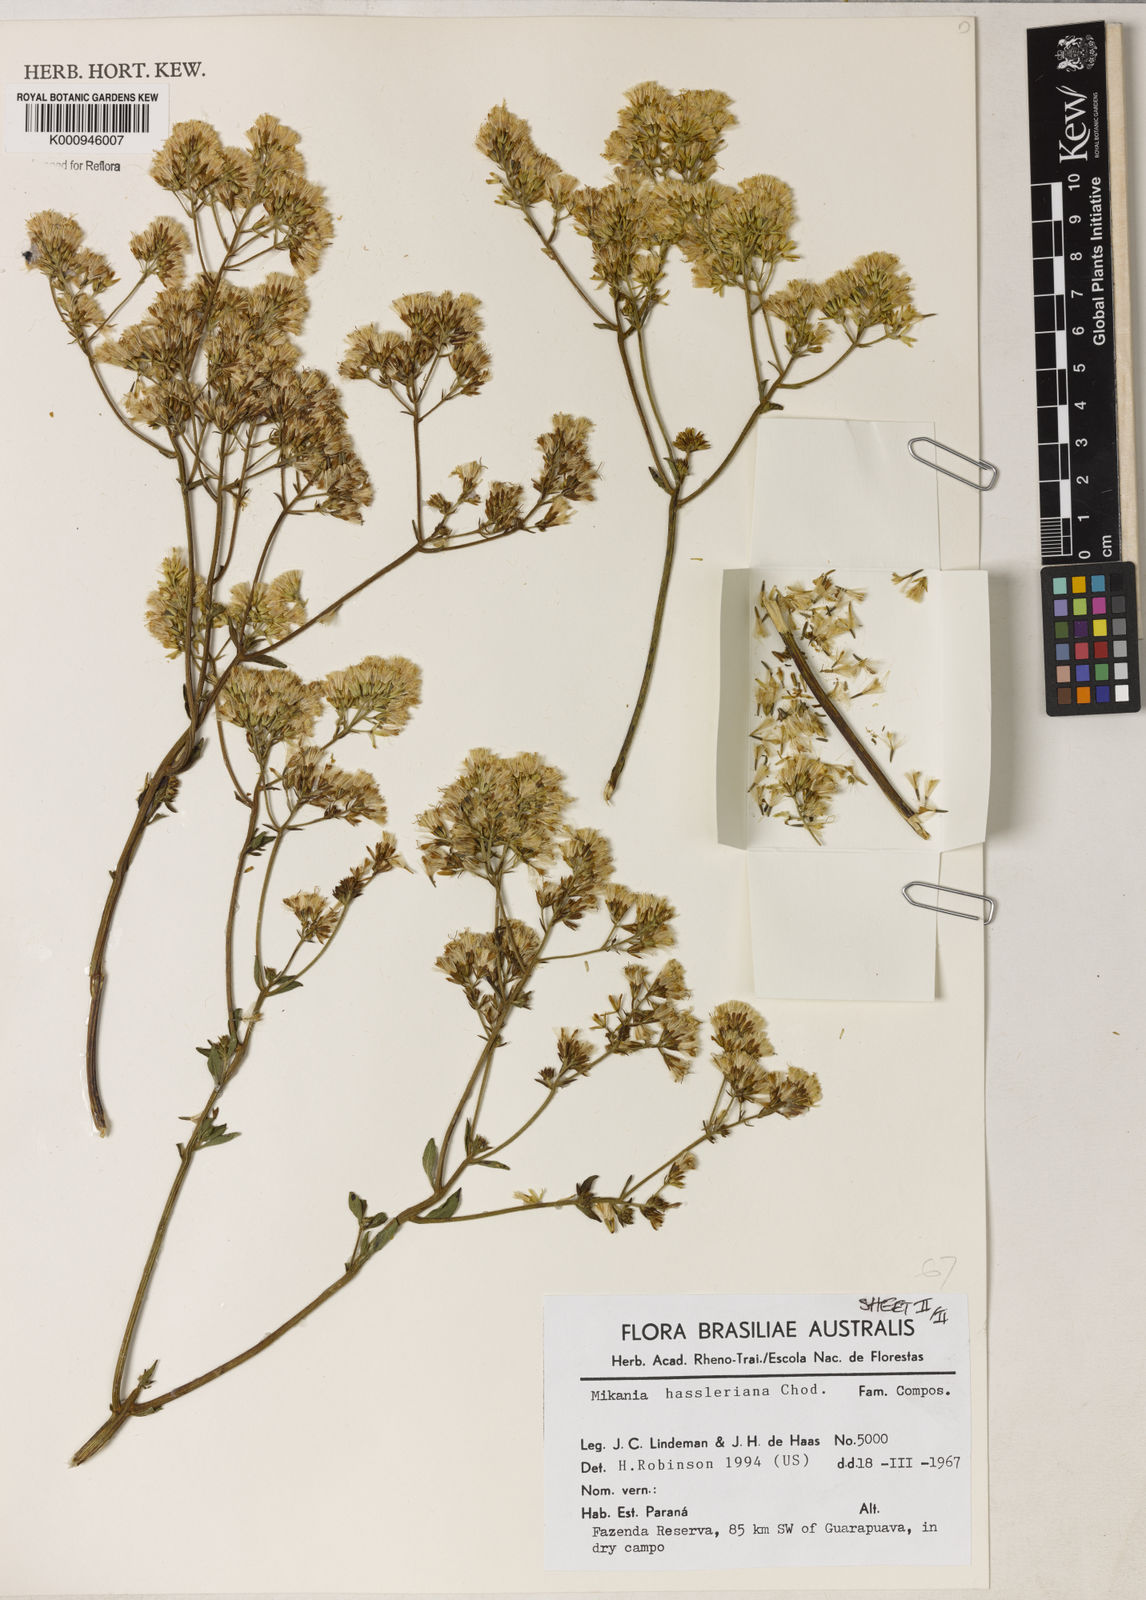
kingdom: Plantae
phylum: Tracheophyta
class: Magnoliopsida
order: Asterales
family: Asteraceae
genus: Mikania
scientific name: Mikania fulva
